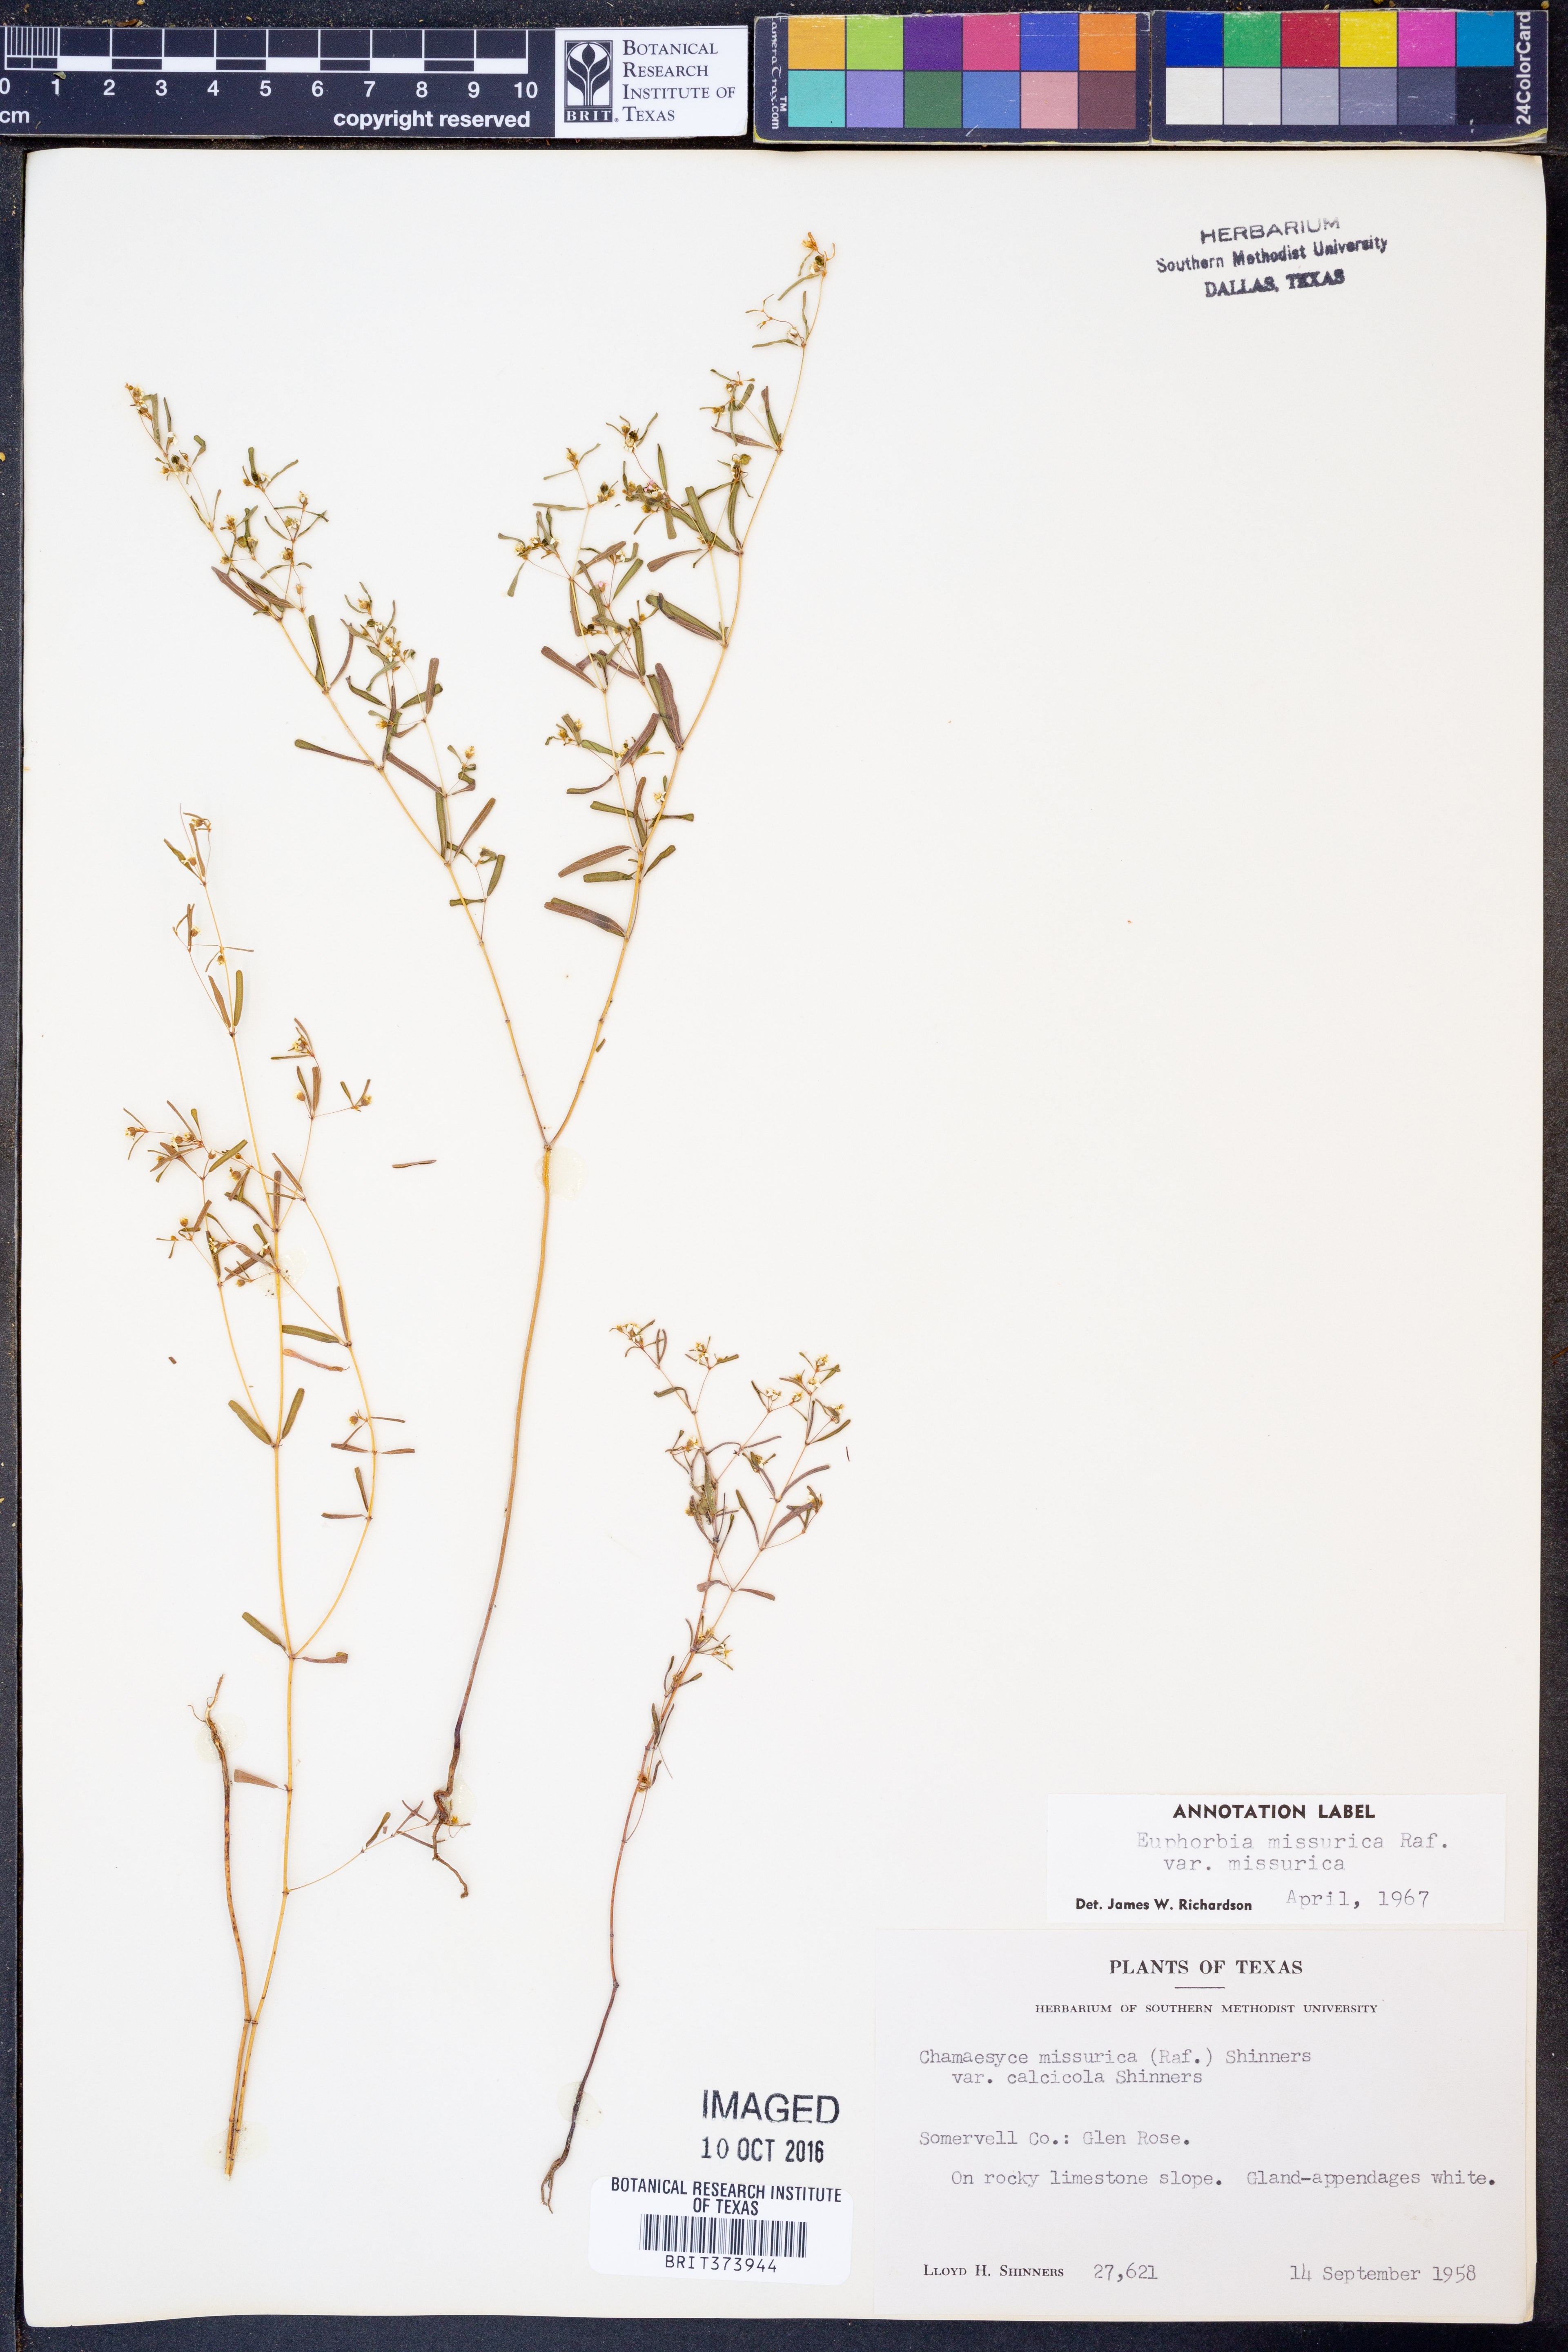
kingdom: Plantae
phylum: Tracheophyta
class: Magnoliopsida
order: Malpighiales
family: Euphorbiaceae
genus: Euphorbia
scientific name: Euphorbia missurica
